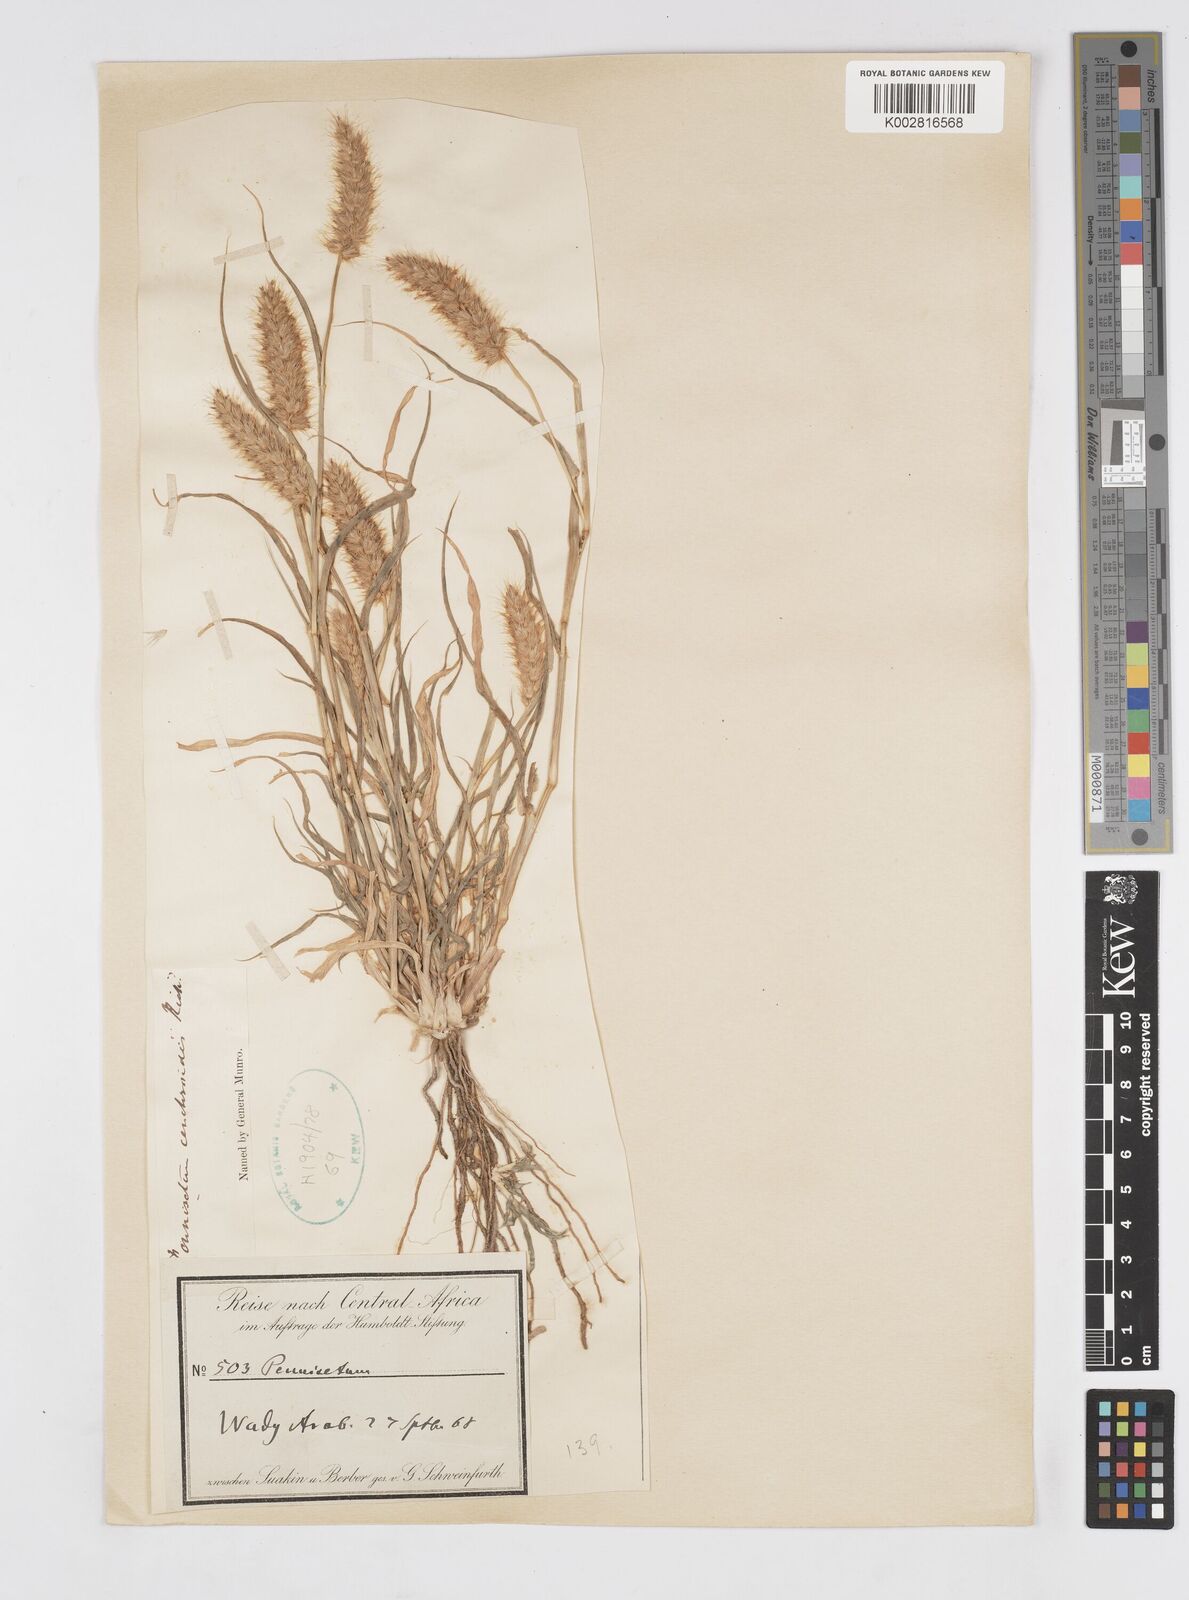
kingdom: Plantae
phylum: Tracheophyta
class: Liliopsida
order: Poales
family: Poaceae
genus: Cenchrus
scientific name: Cenchrus ciliaris
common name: Buffelgrass
